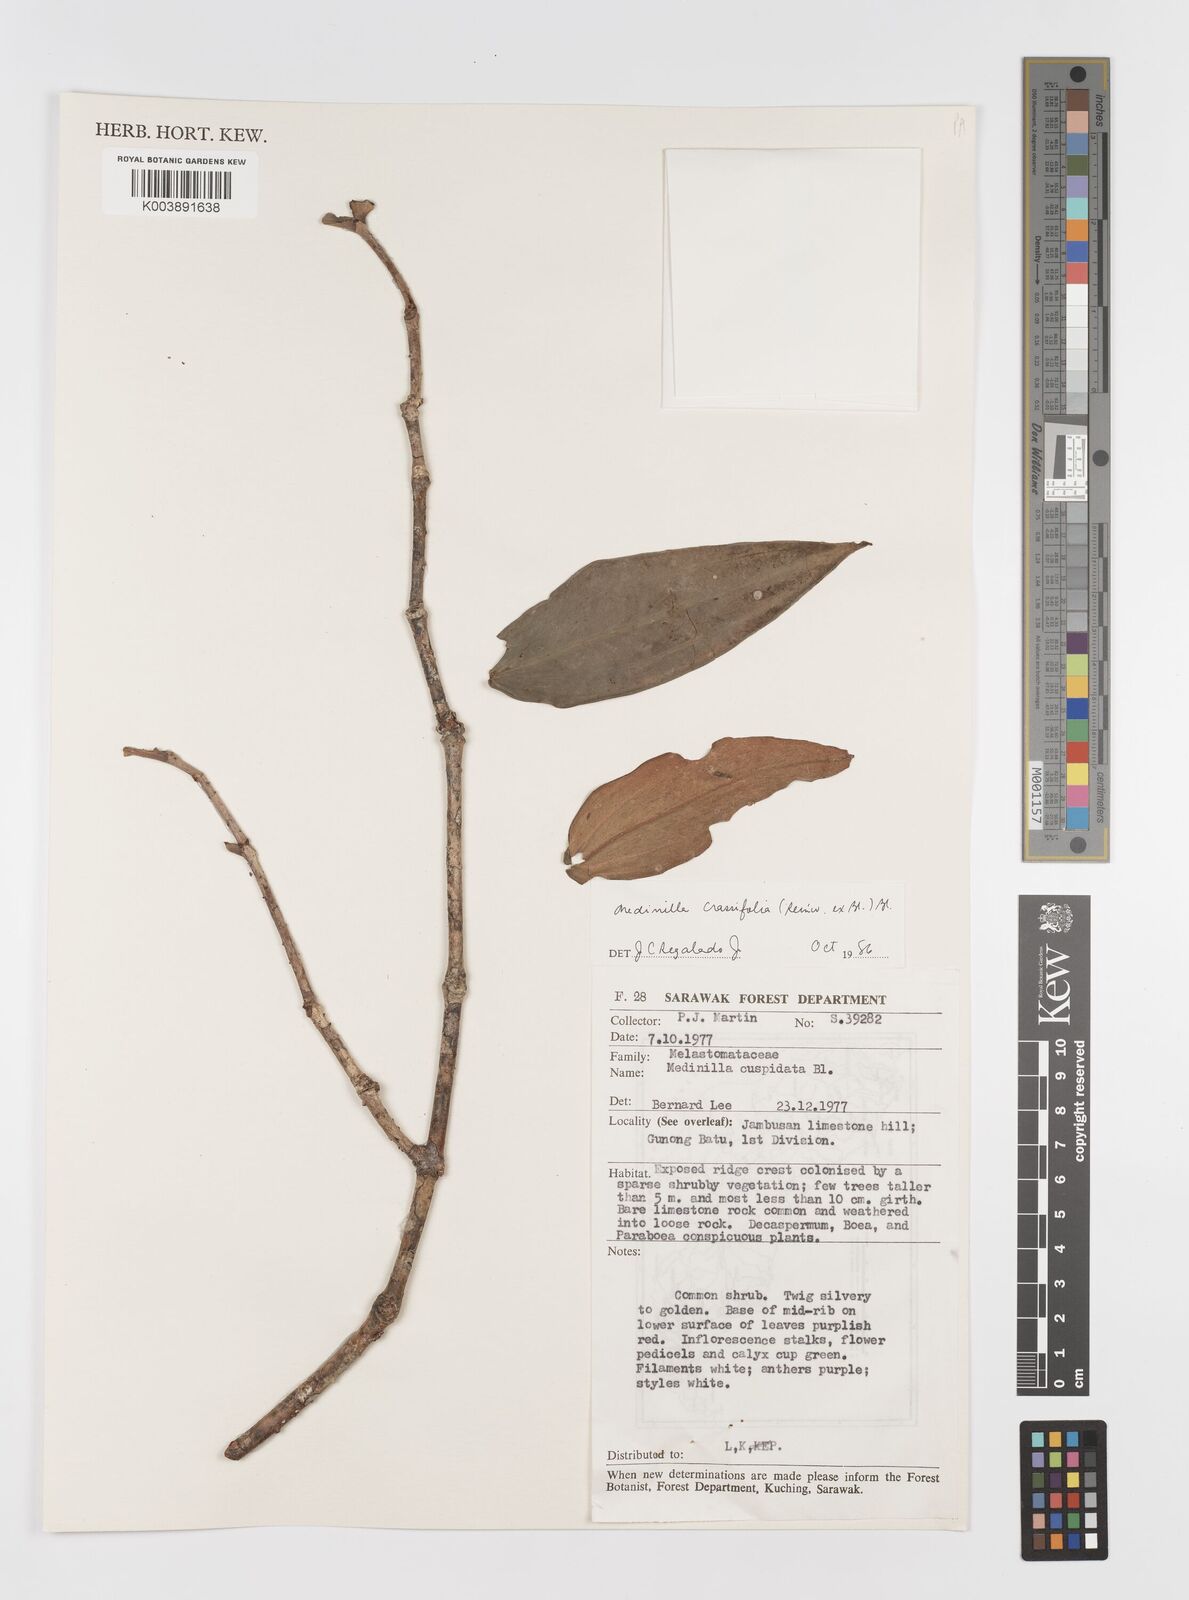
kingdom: Plantae
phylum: Tracheophyta
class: Magnoliopsida
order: Myrtales
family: Melastomataceae
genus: Medinilla
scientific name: Medinilla crassifolia
